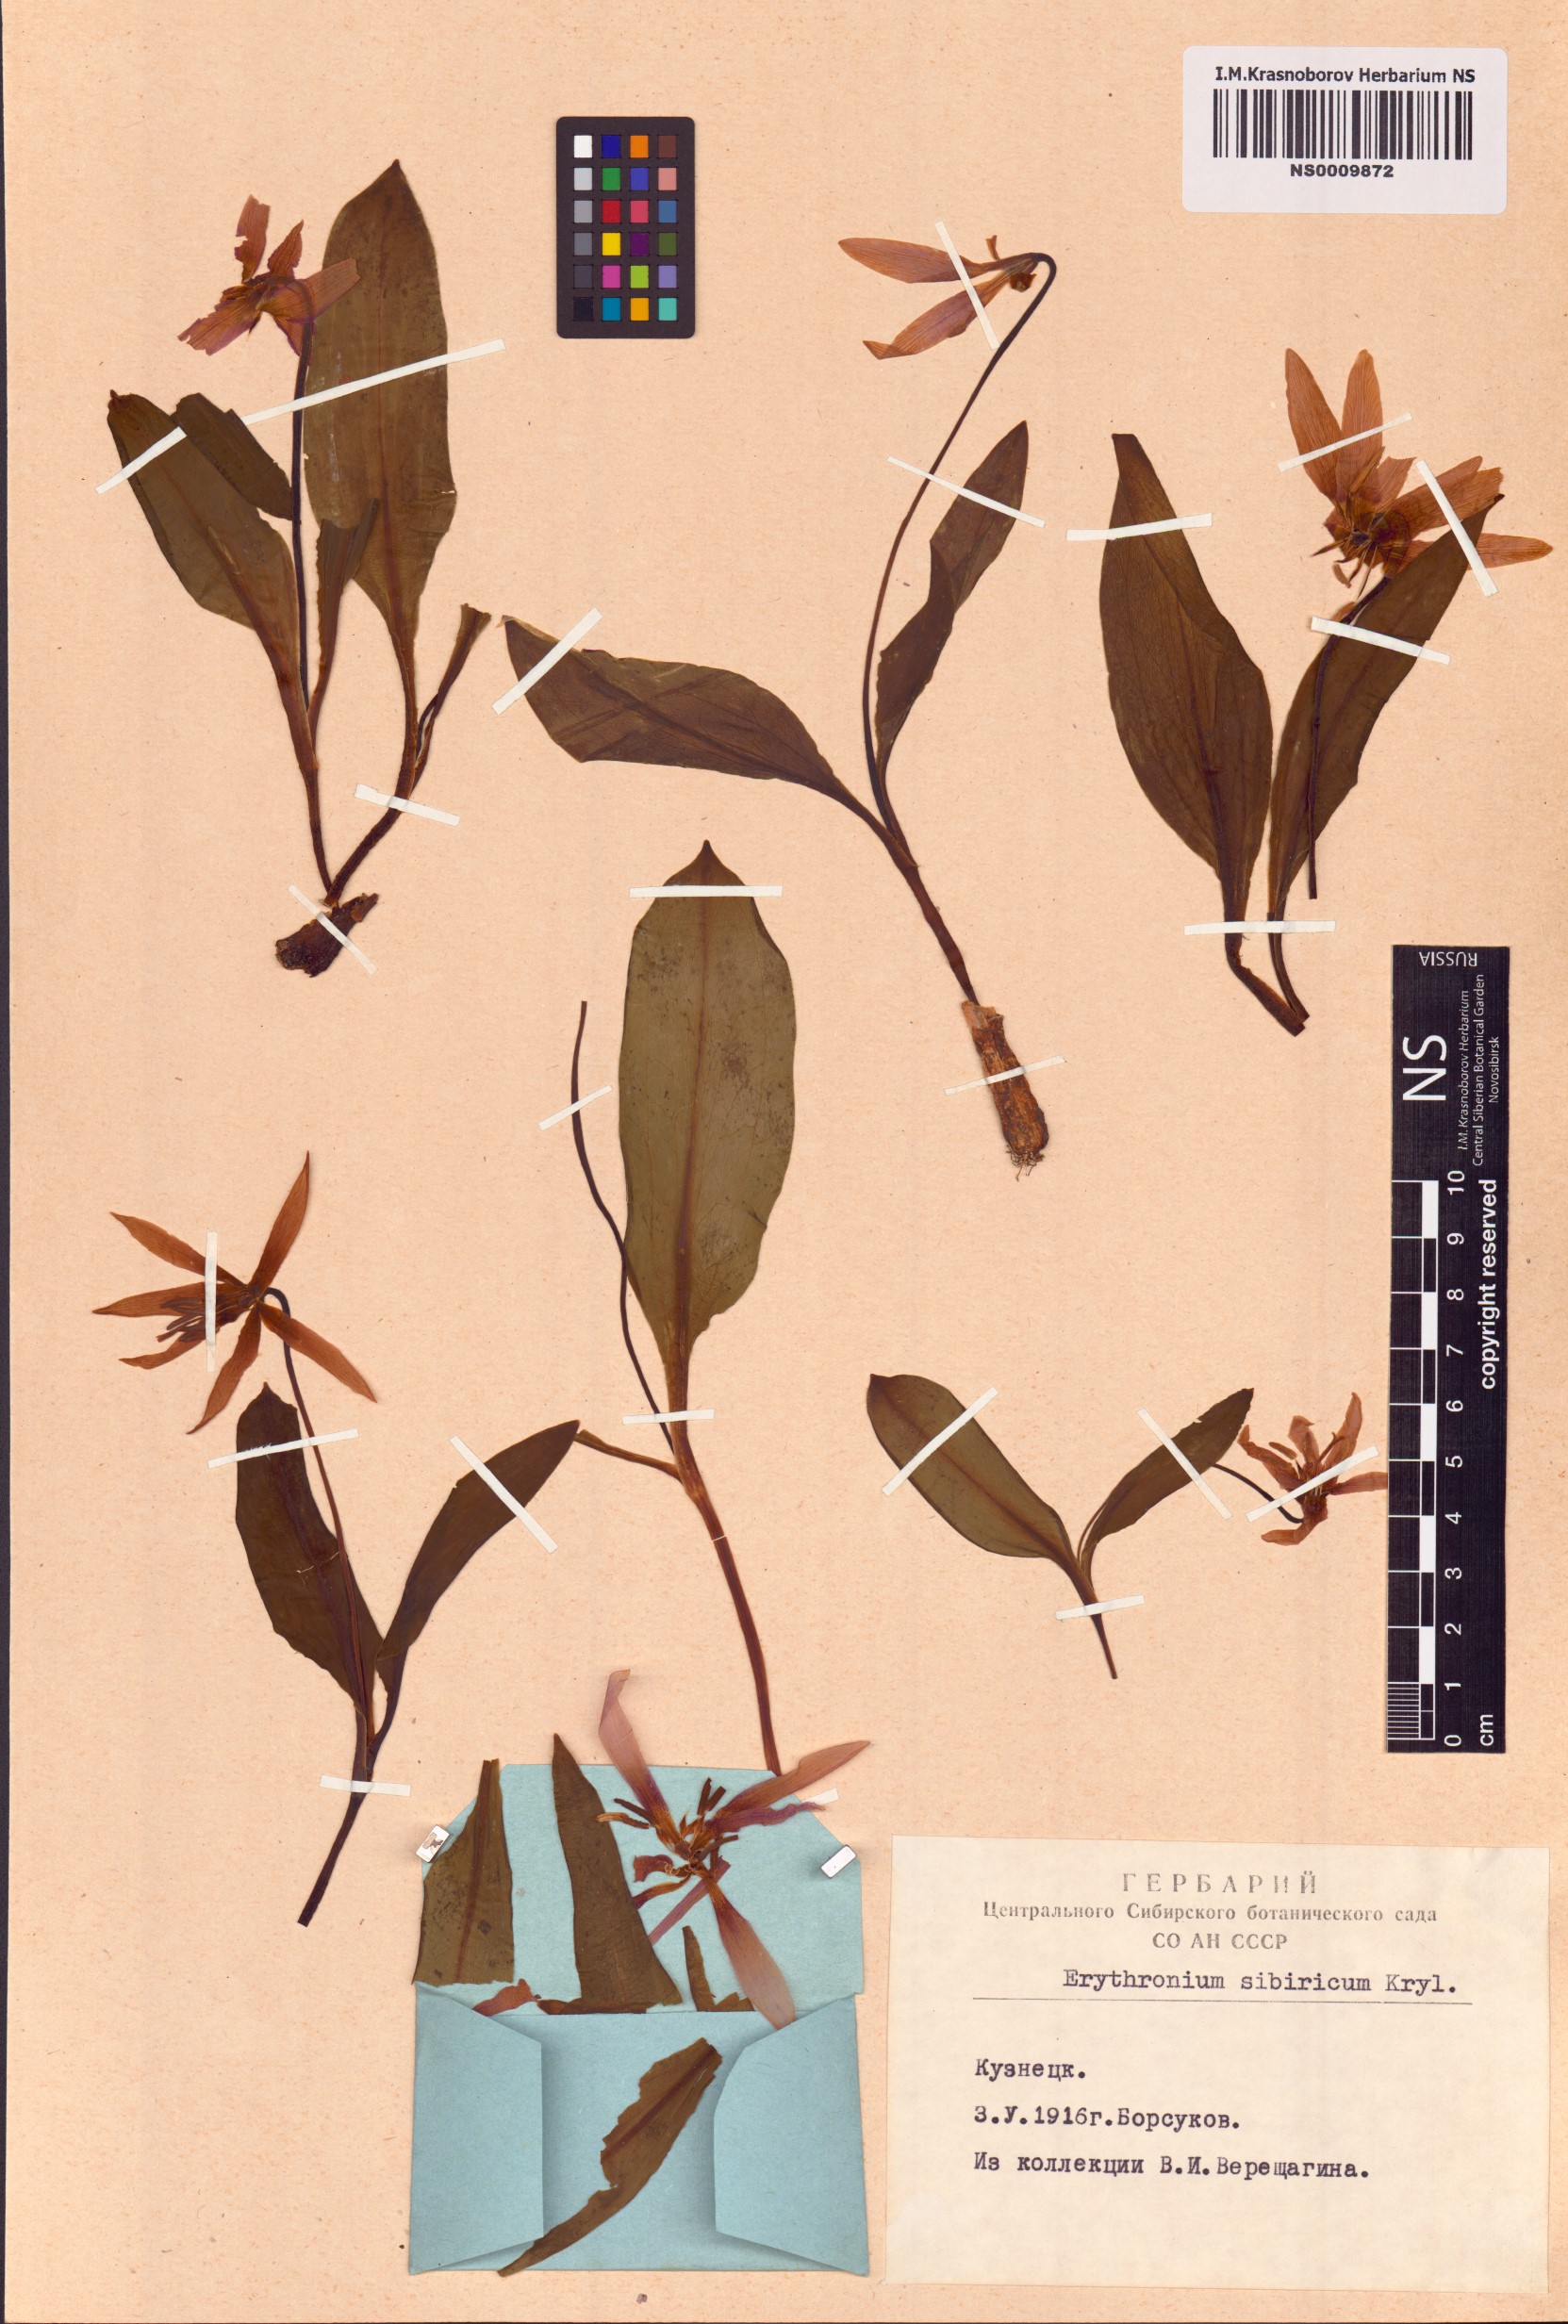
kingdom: Plantae
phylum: Tracheophyta
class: Liliopsida
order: Liliales
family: Liliaceae
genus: Erythronium
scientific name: Erythronium sibiricum
